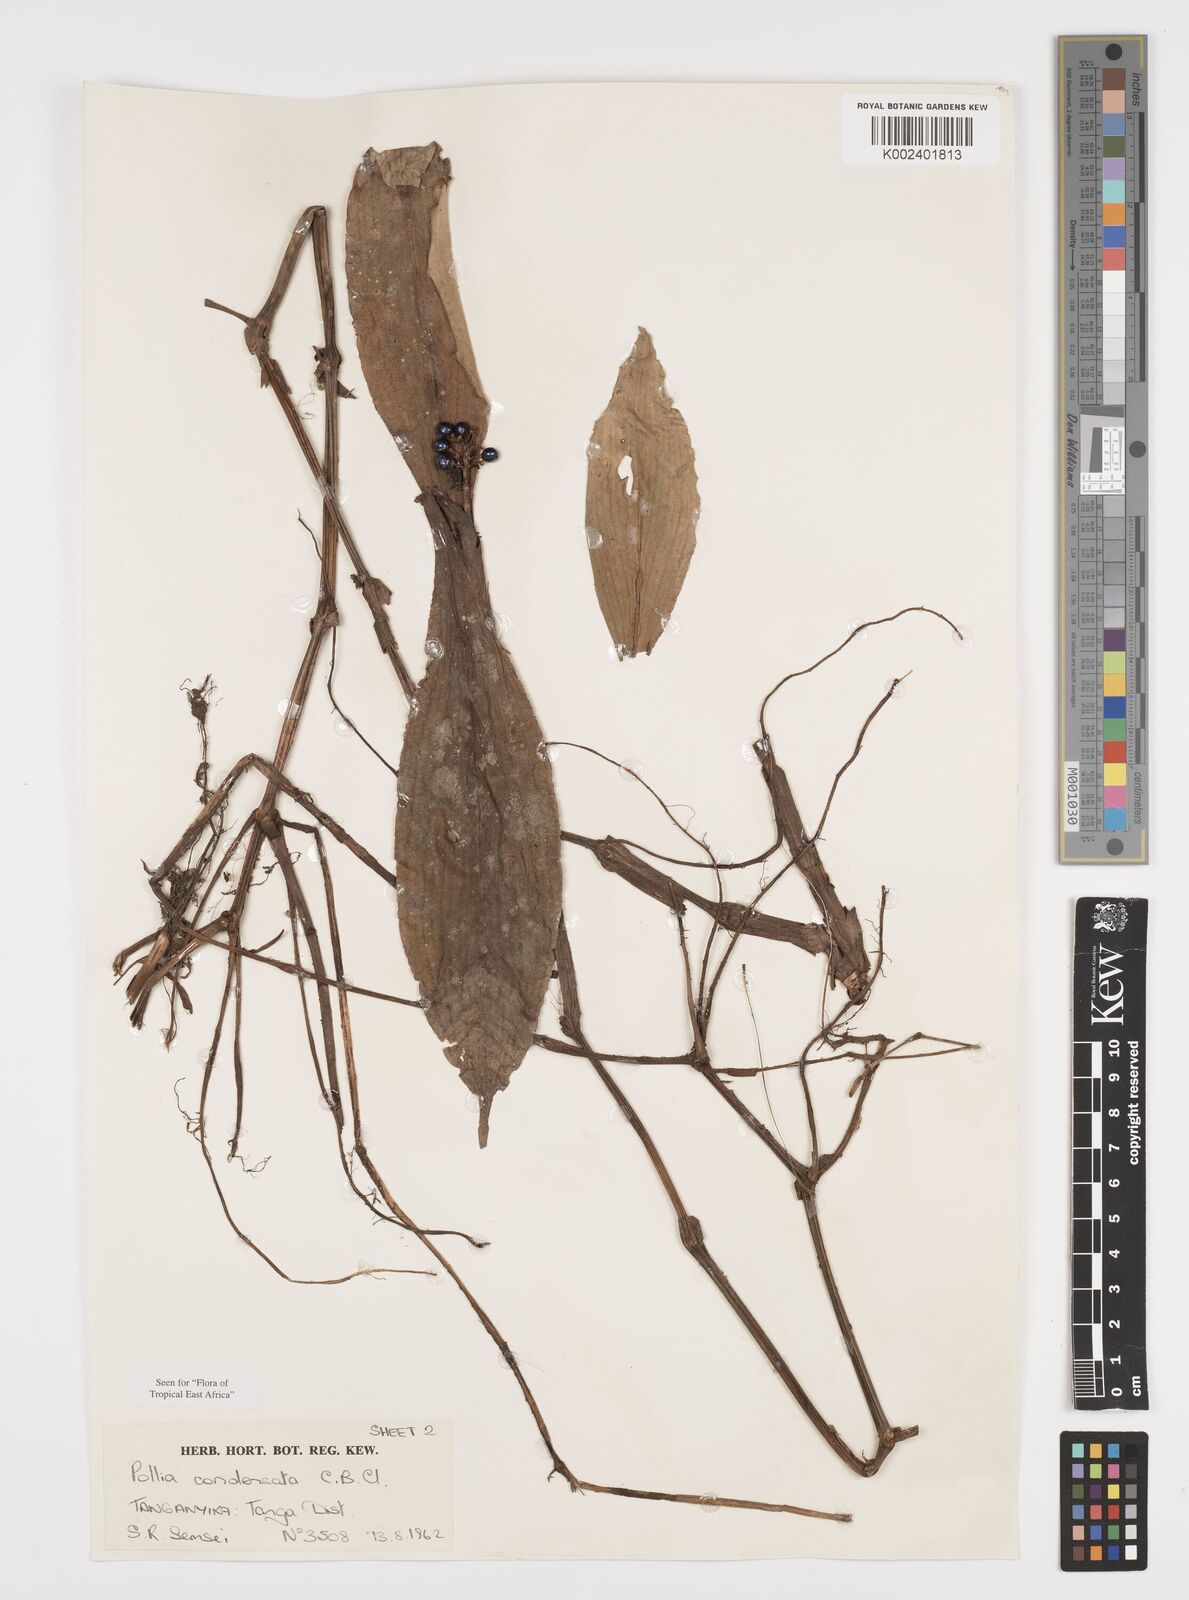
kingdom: Plantae
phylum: Tracheophyta
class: Liliopsida
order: Commelinales
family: Commelinaceae
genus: Pollia
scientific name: Pollia condensata
